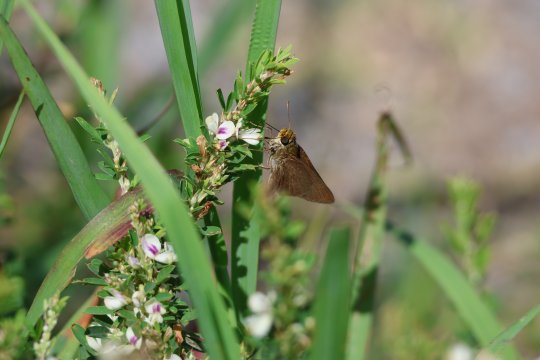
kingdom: Animalia
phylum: Arthropoda
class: Insecta
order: Lepidoptera
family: Hesperiidae
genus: Euphyes
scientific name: Euphyes vestris
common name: Dun Skipper
